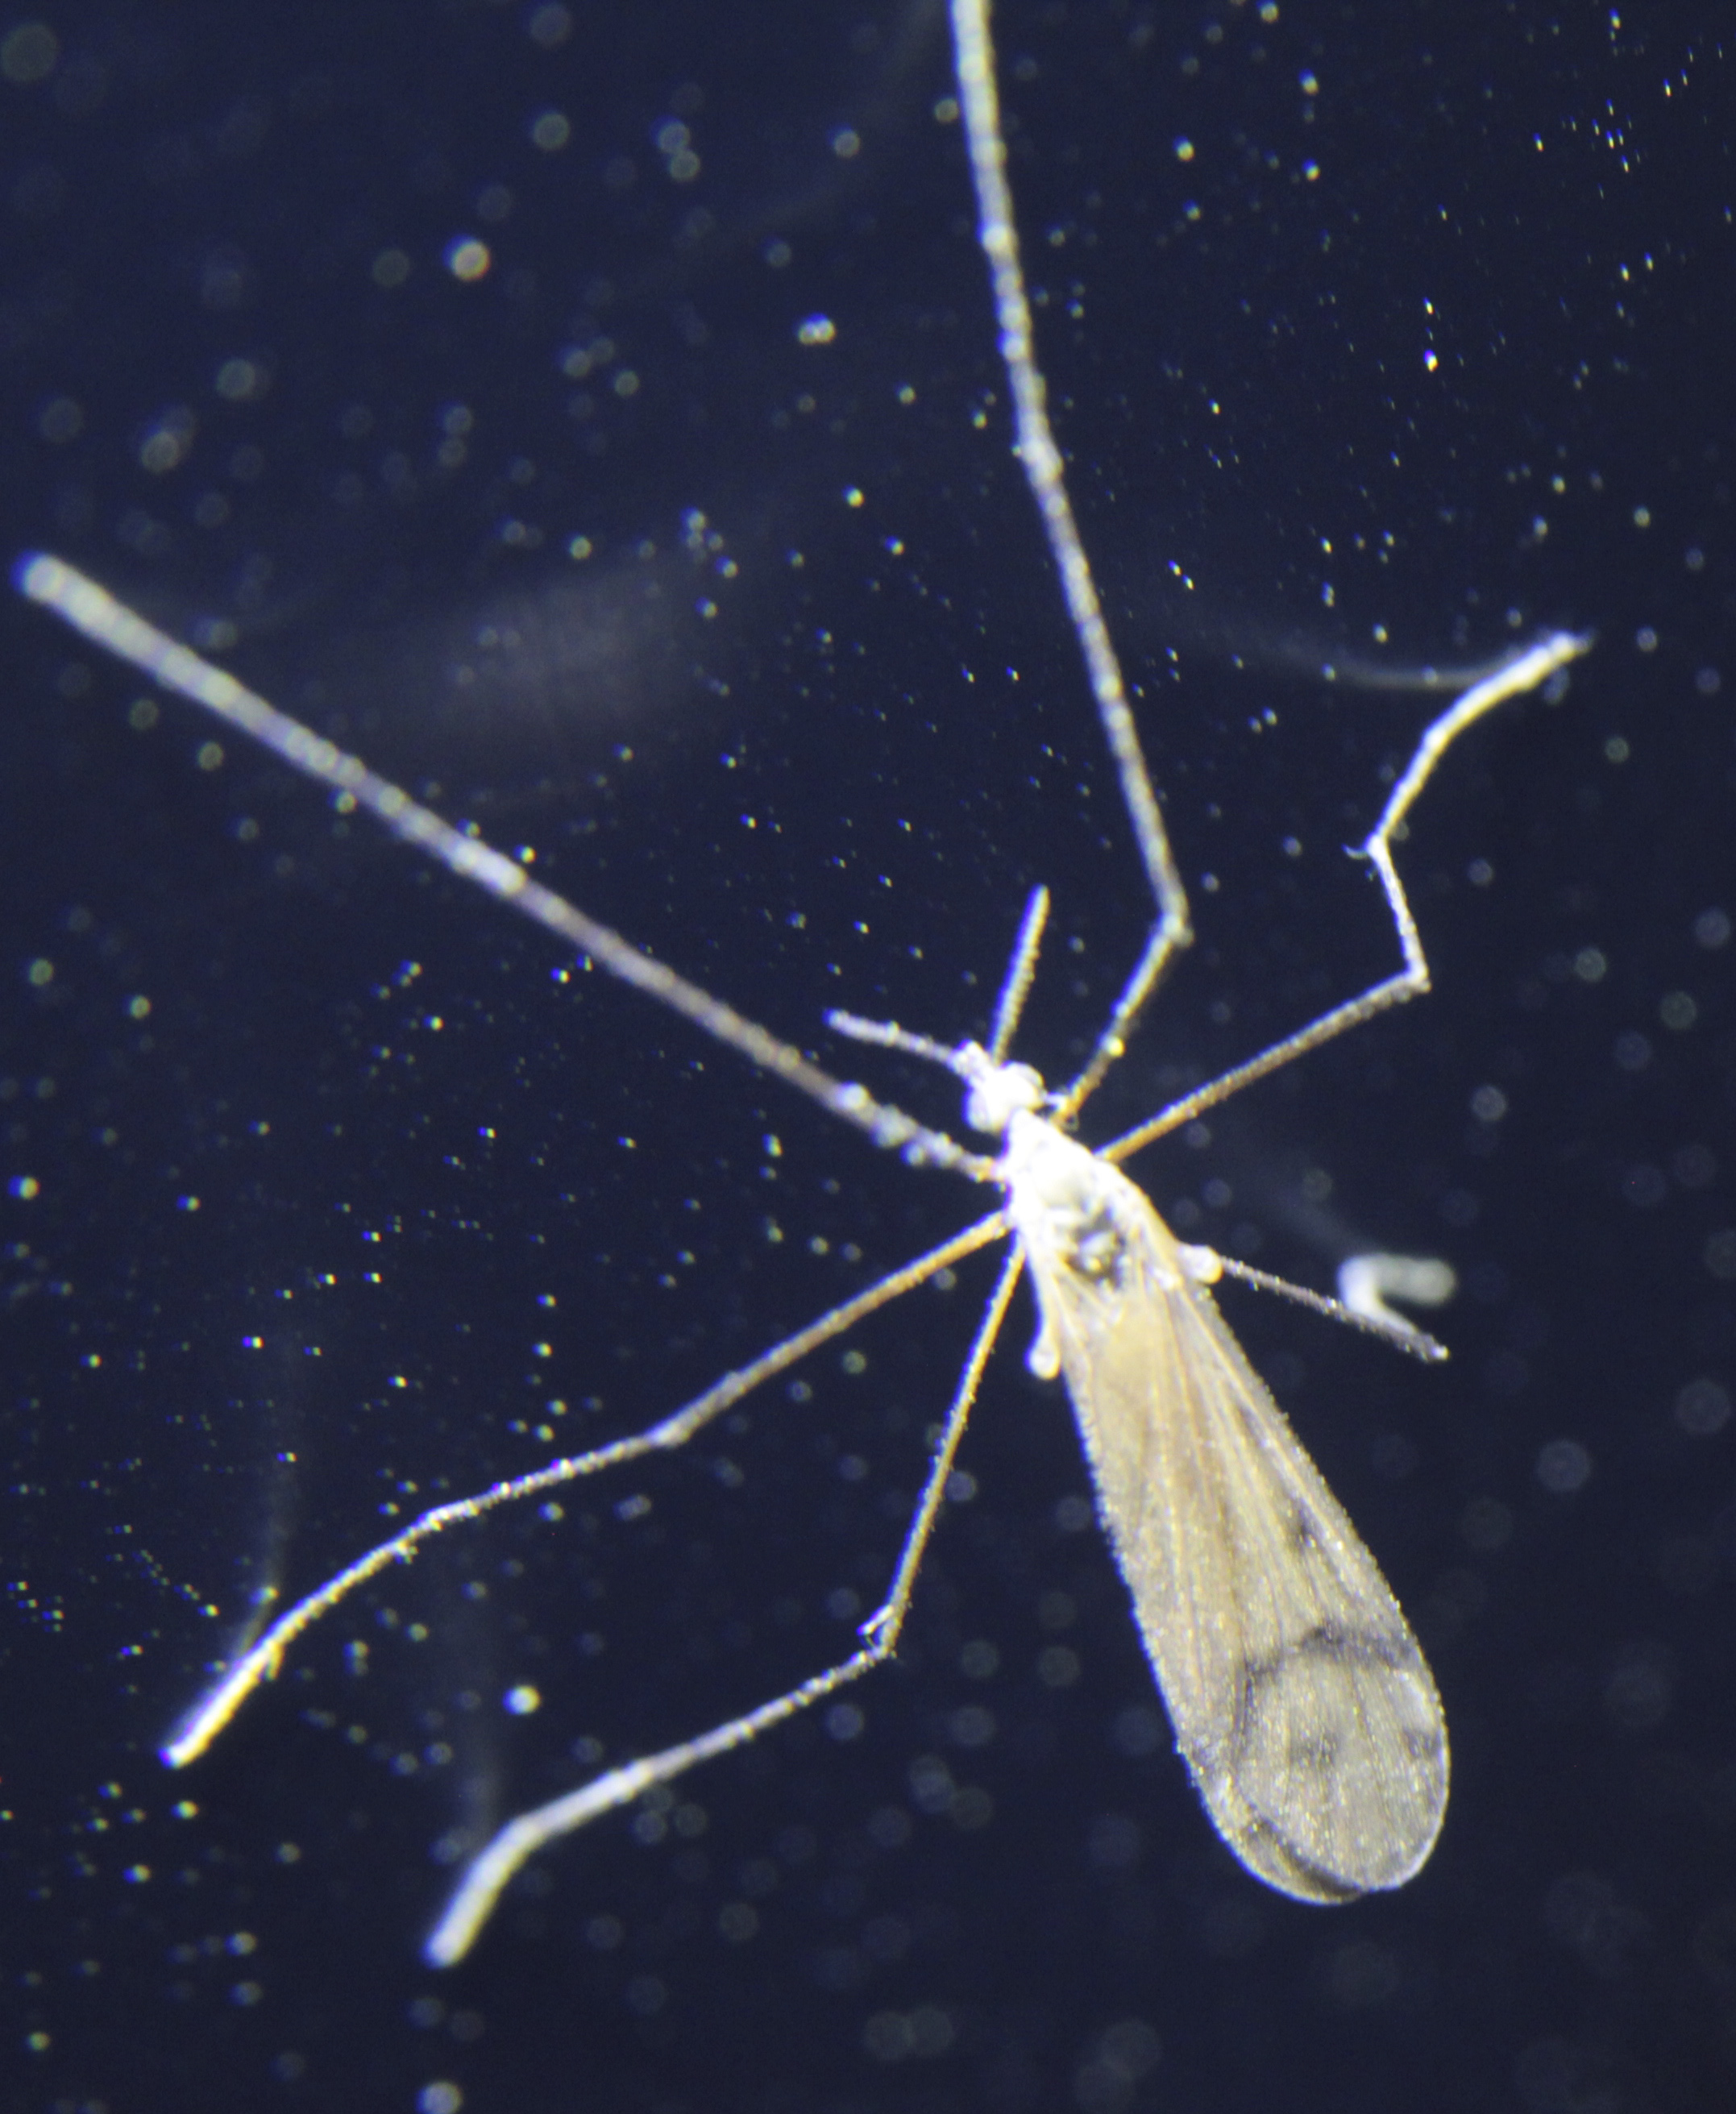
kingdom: Animalia
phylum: Arthropoda
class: Insecta
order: Diptera
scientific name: Diptera
